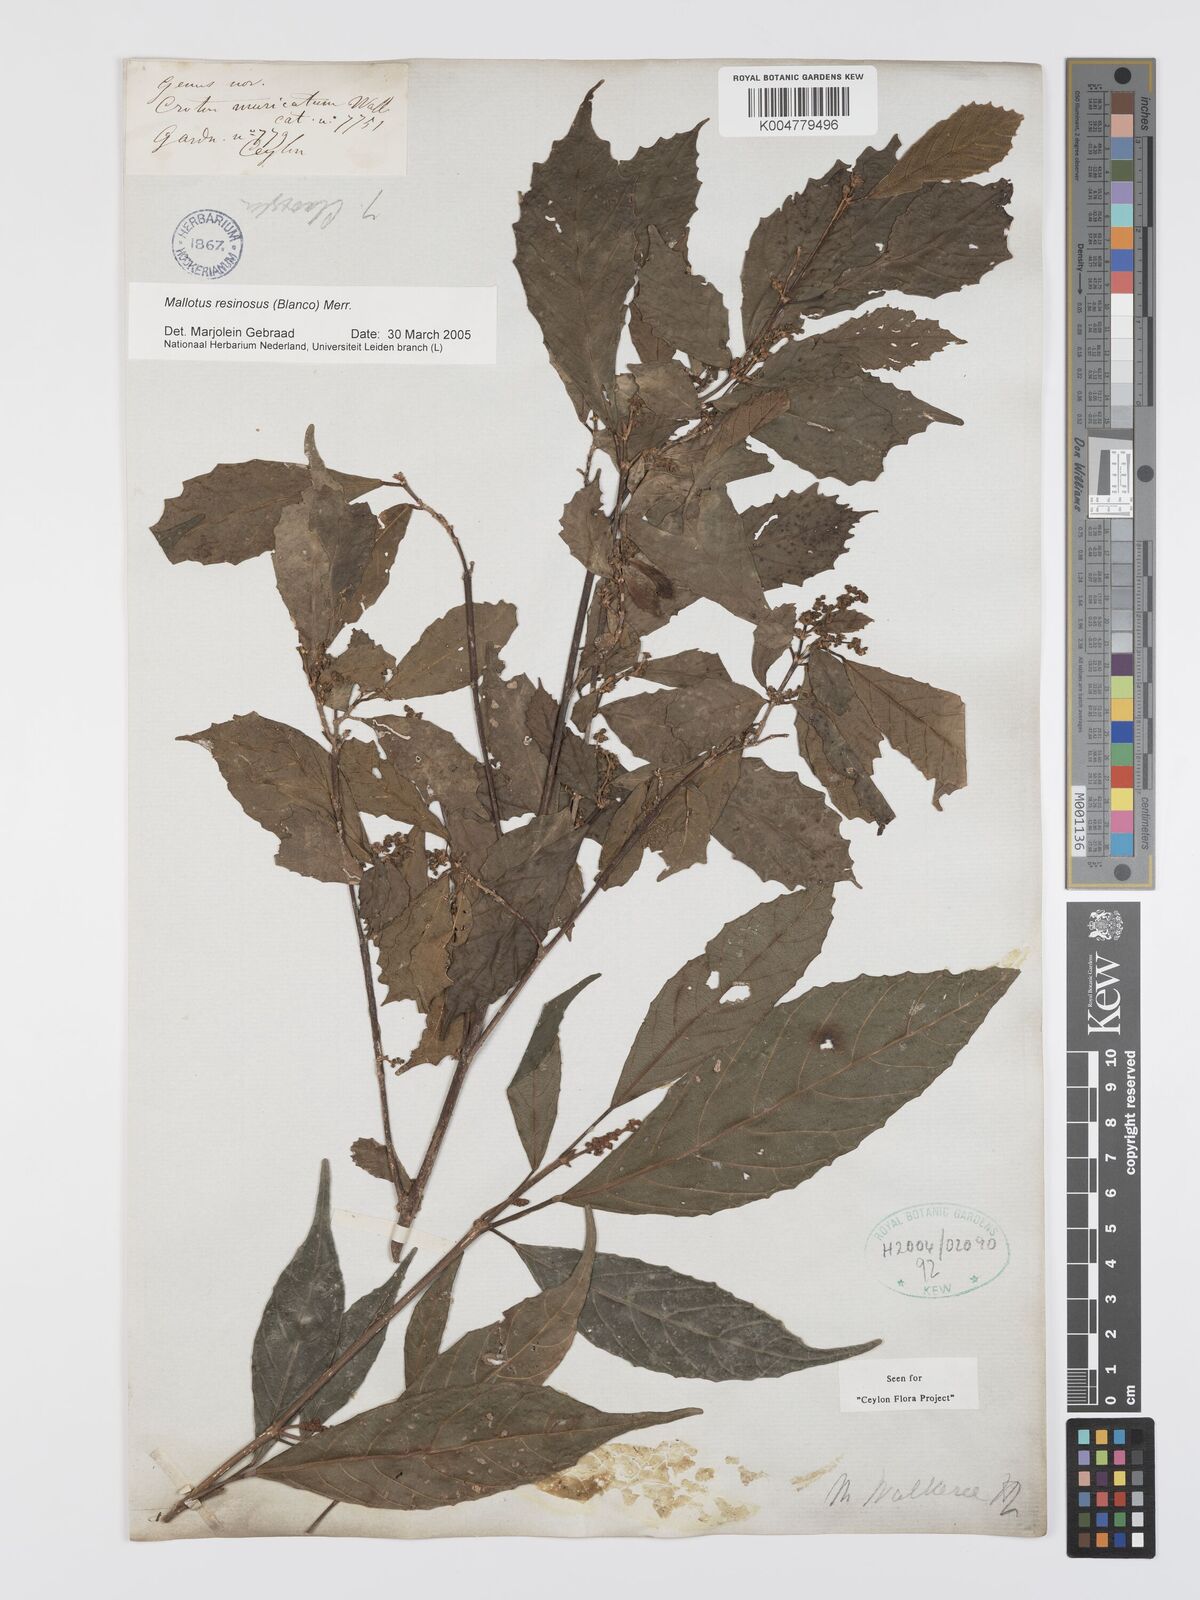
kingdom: Plantae
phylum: Tracheophyta
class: Magnoliopsida
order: Malpighiales
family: Euphorbiaceae
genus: Mallotus
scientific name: Mallotus resinosus
